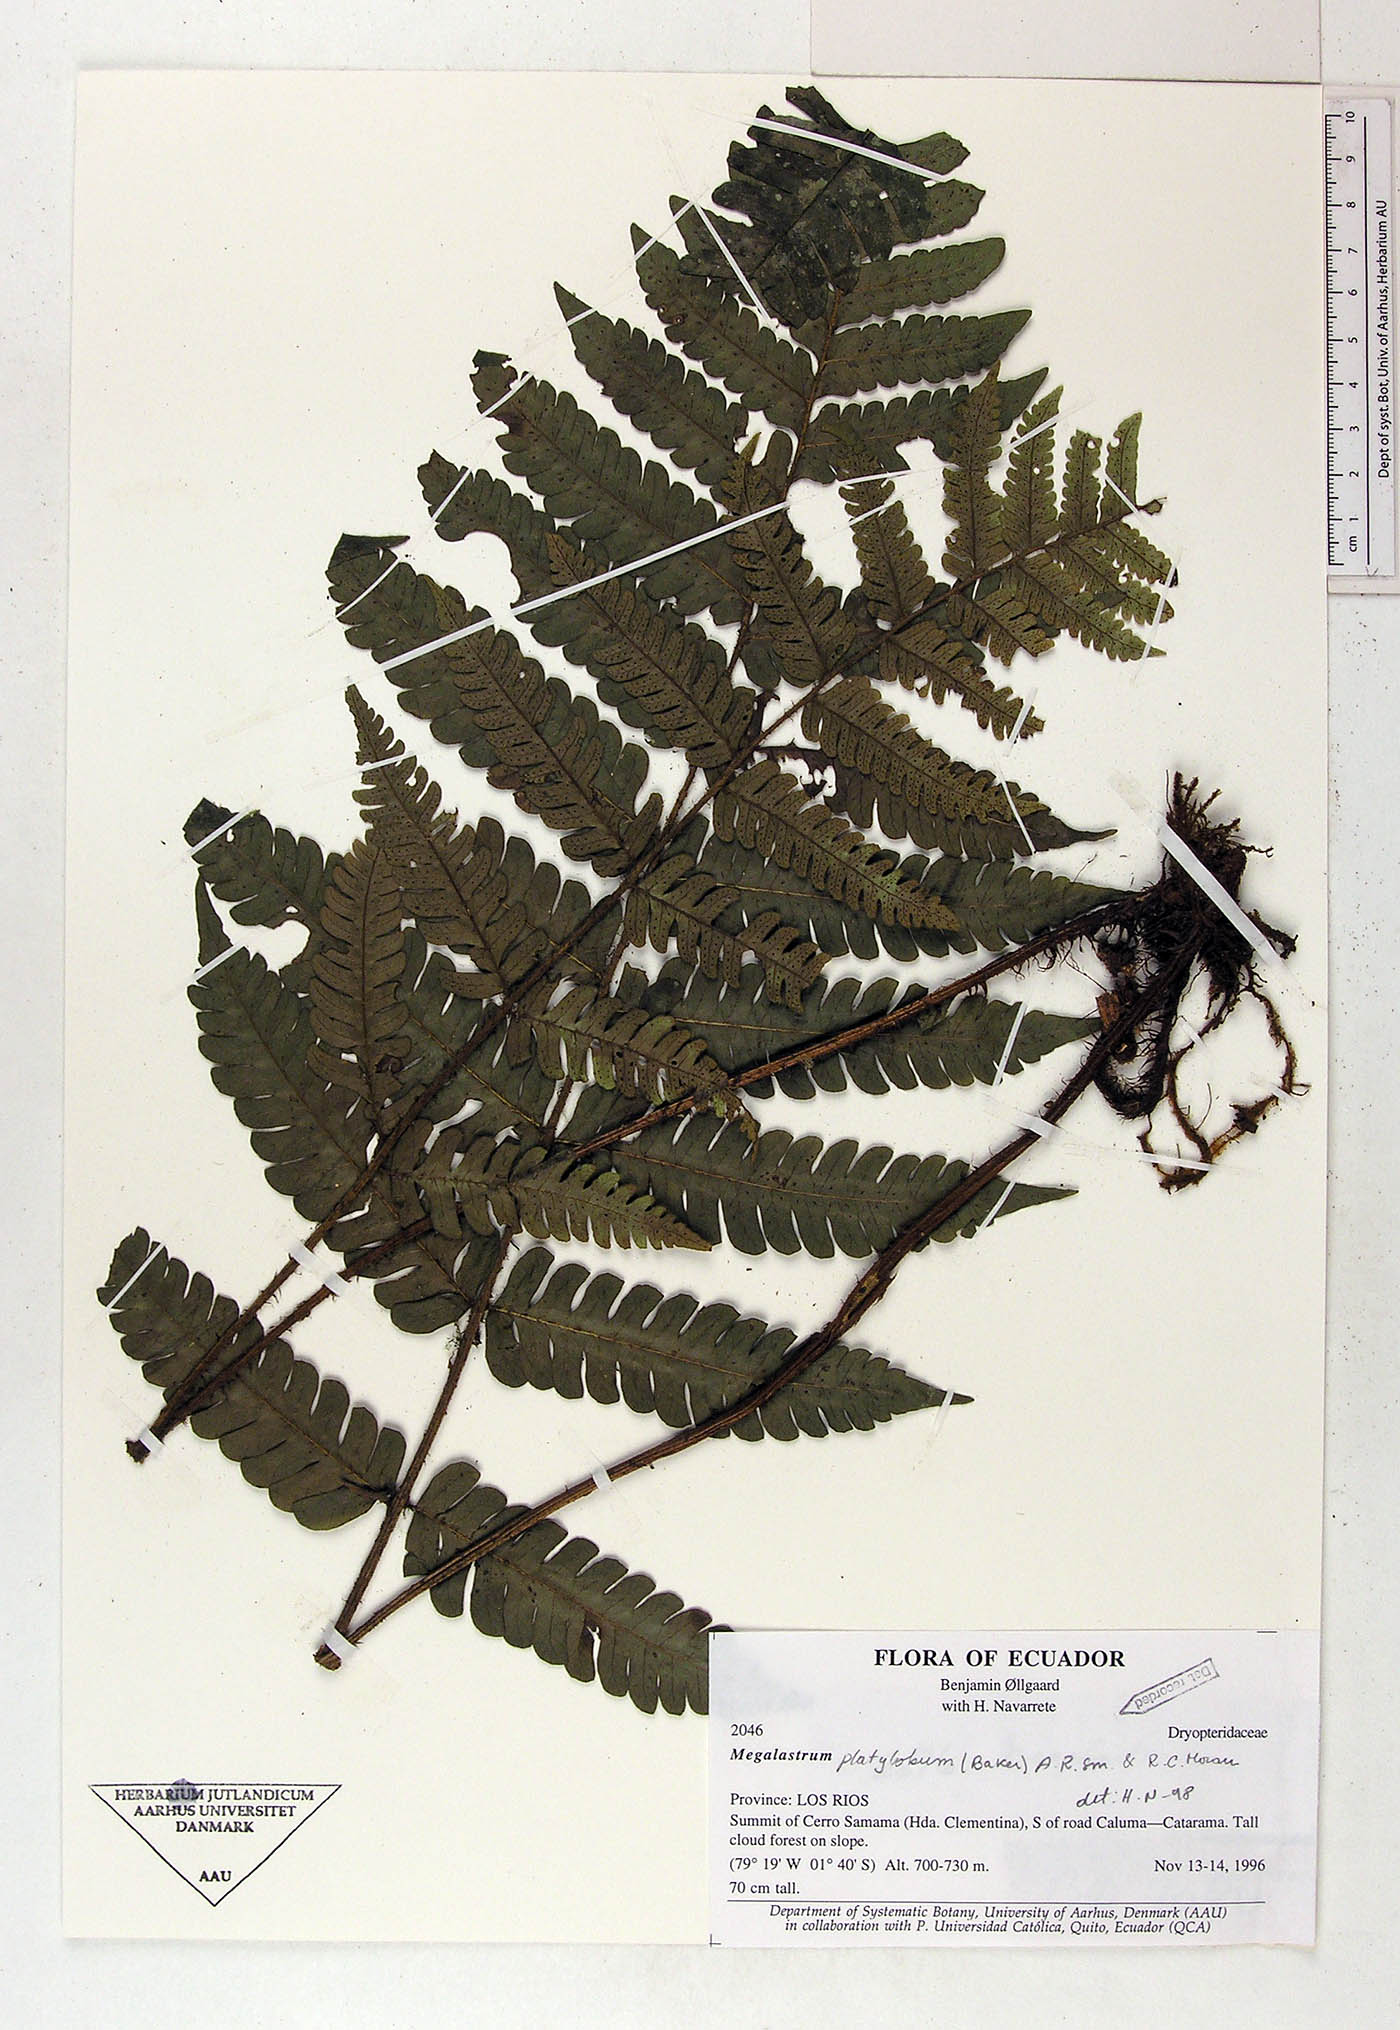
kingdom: Plantae
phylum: Tracheophyta
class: Polypodiopsida
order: Polypodiales
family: Dryopteridaceae
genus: Megalastrum
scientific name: Megalastrum ctenitoides
